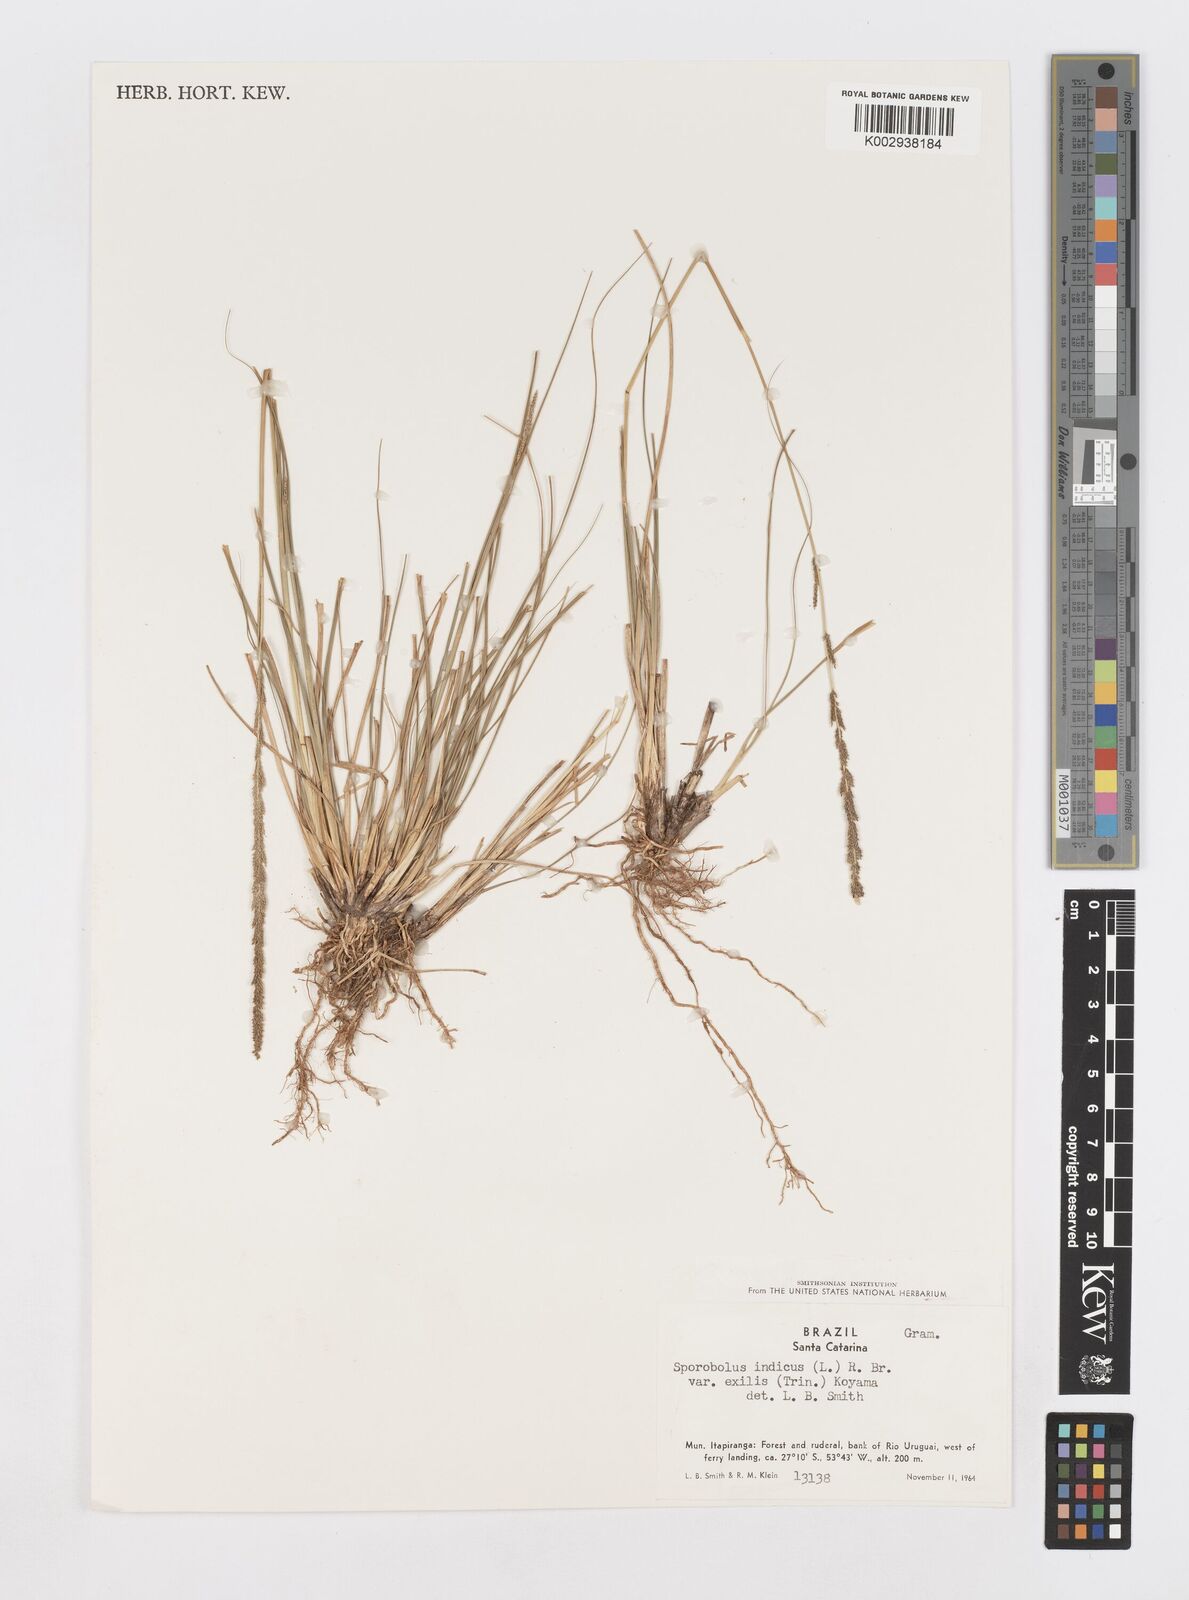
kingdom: Plantae
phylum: Tracheophyta
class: Liliopsida
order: Poales
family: Poaceae
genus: Sporobolus
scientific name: Sporobolus indicus
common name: Smut grass
